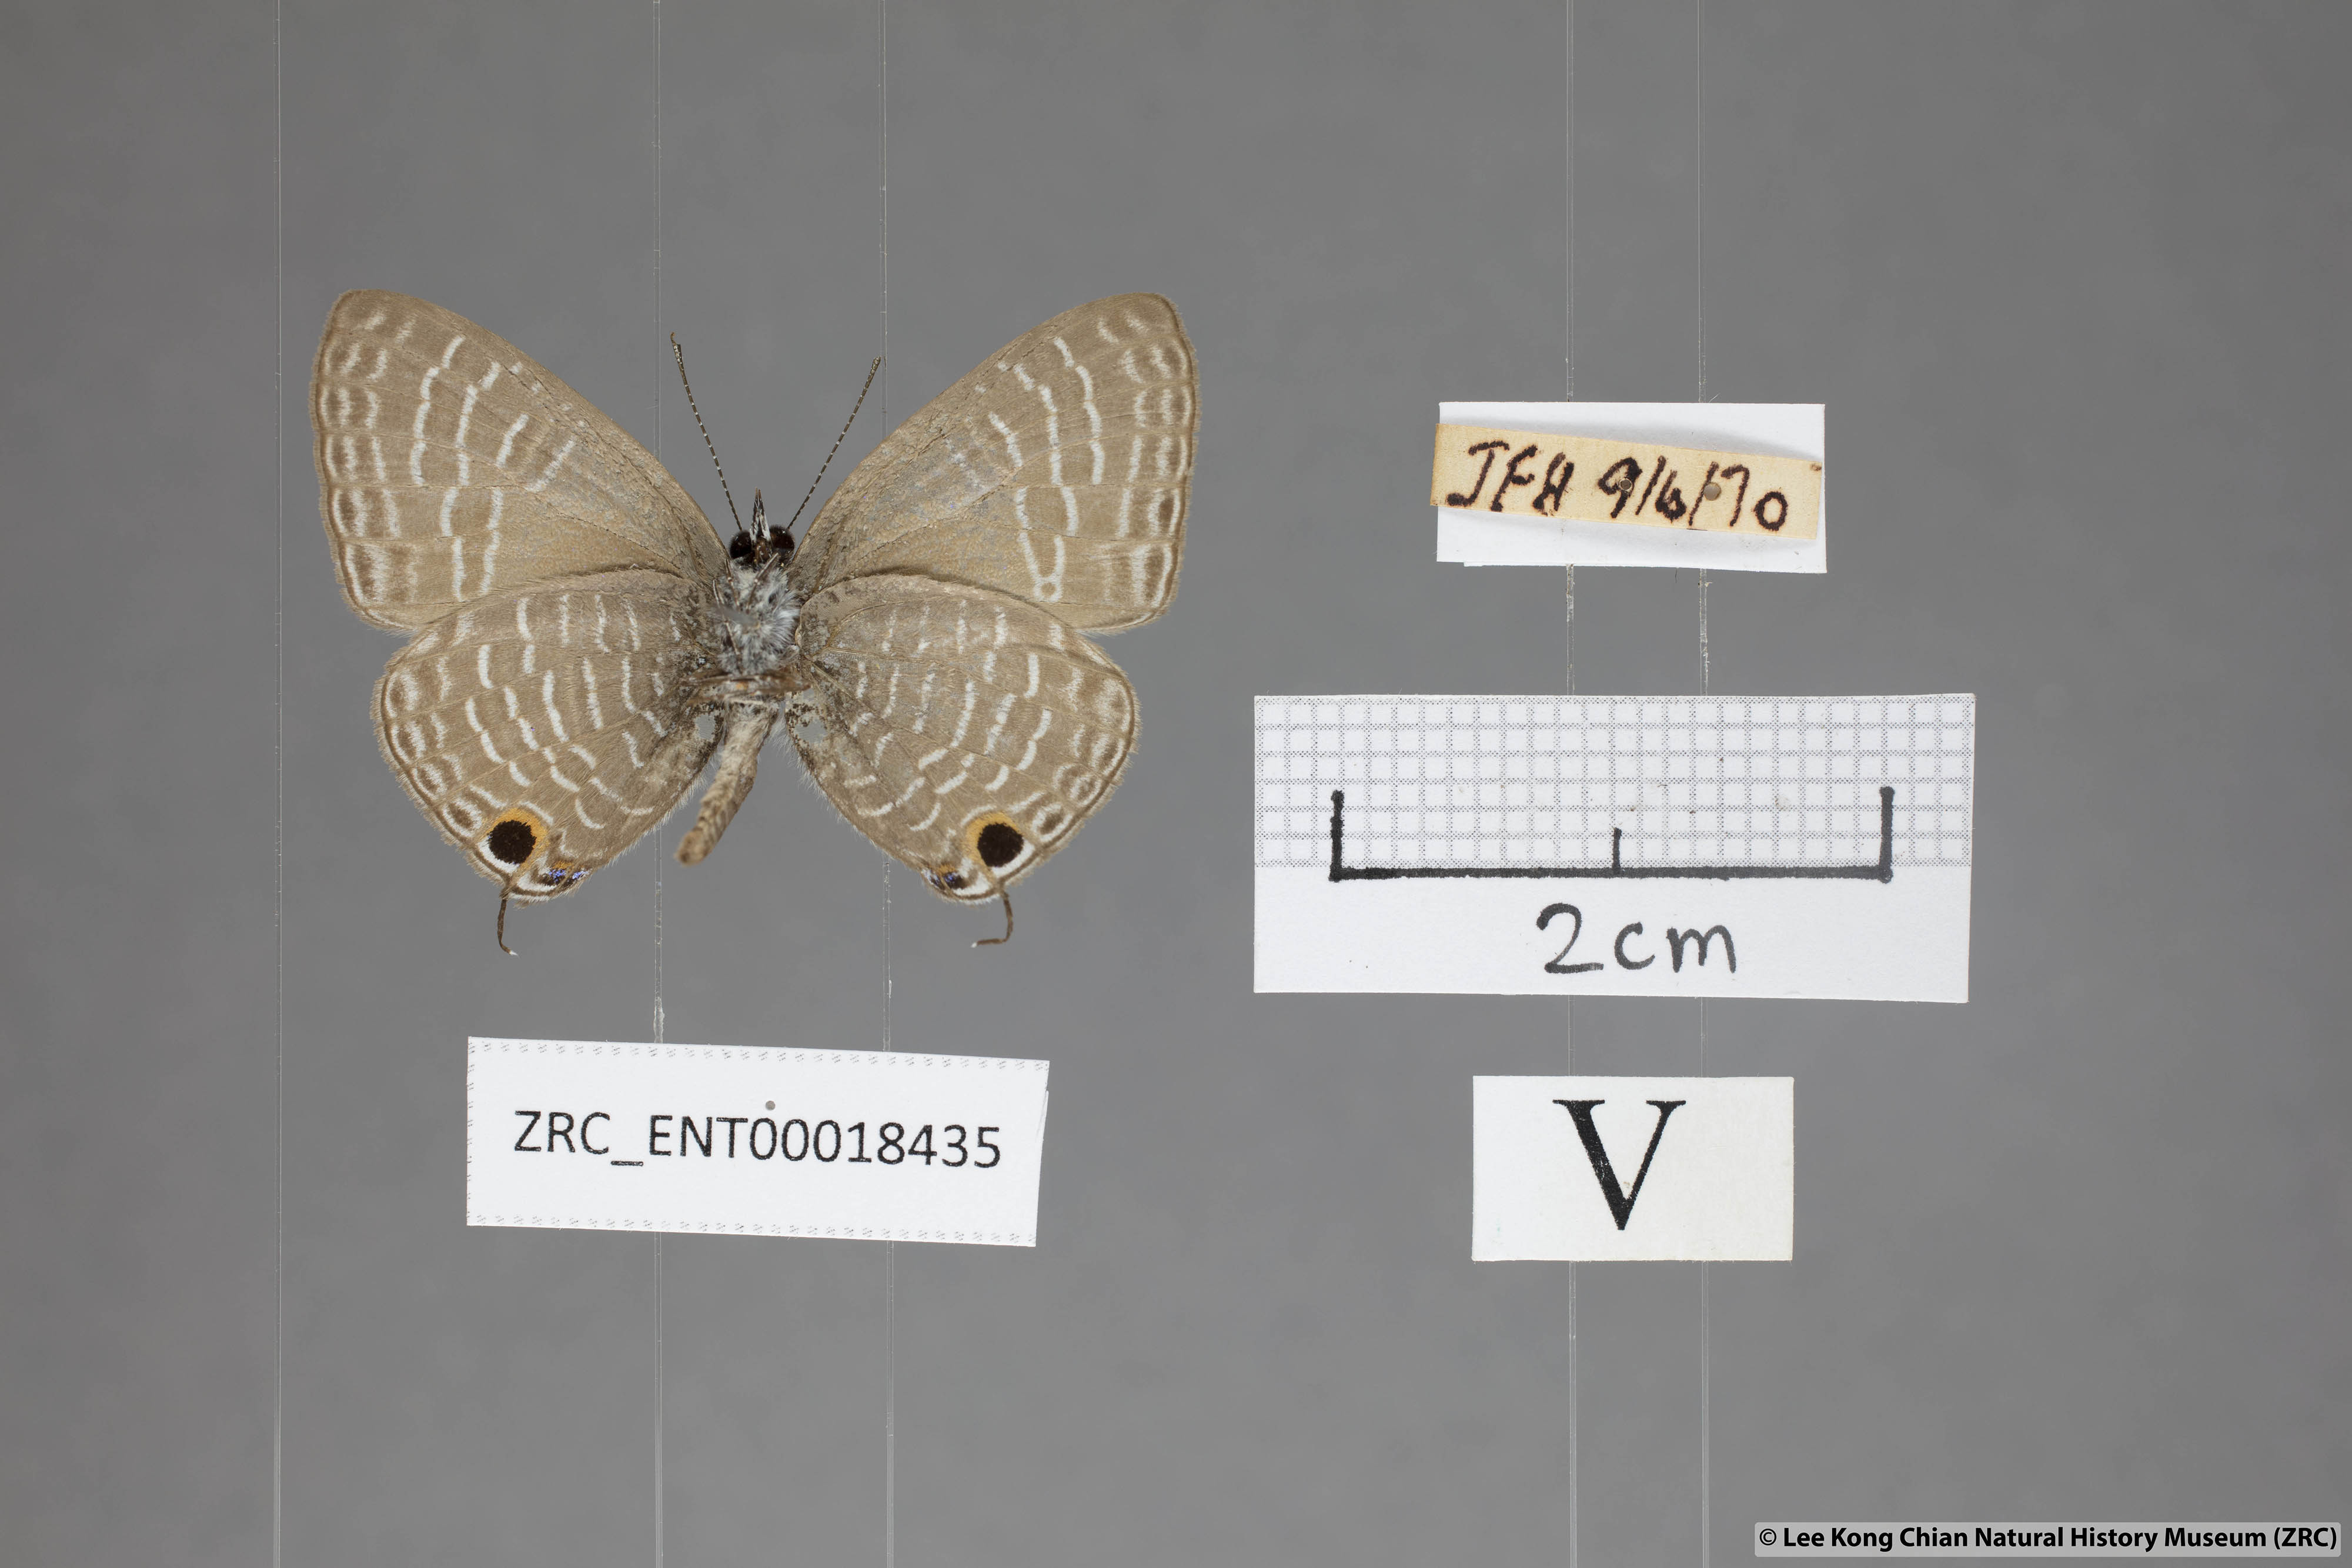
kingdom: Animalia
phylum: Arthropoda
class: Insecta
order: Lepidoptera
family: Lycaenidae
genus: Nacaduba
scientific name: Nacaduba pendleburyi
